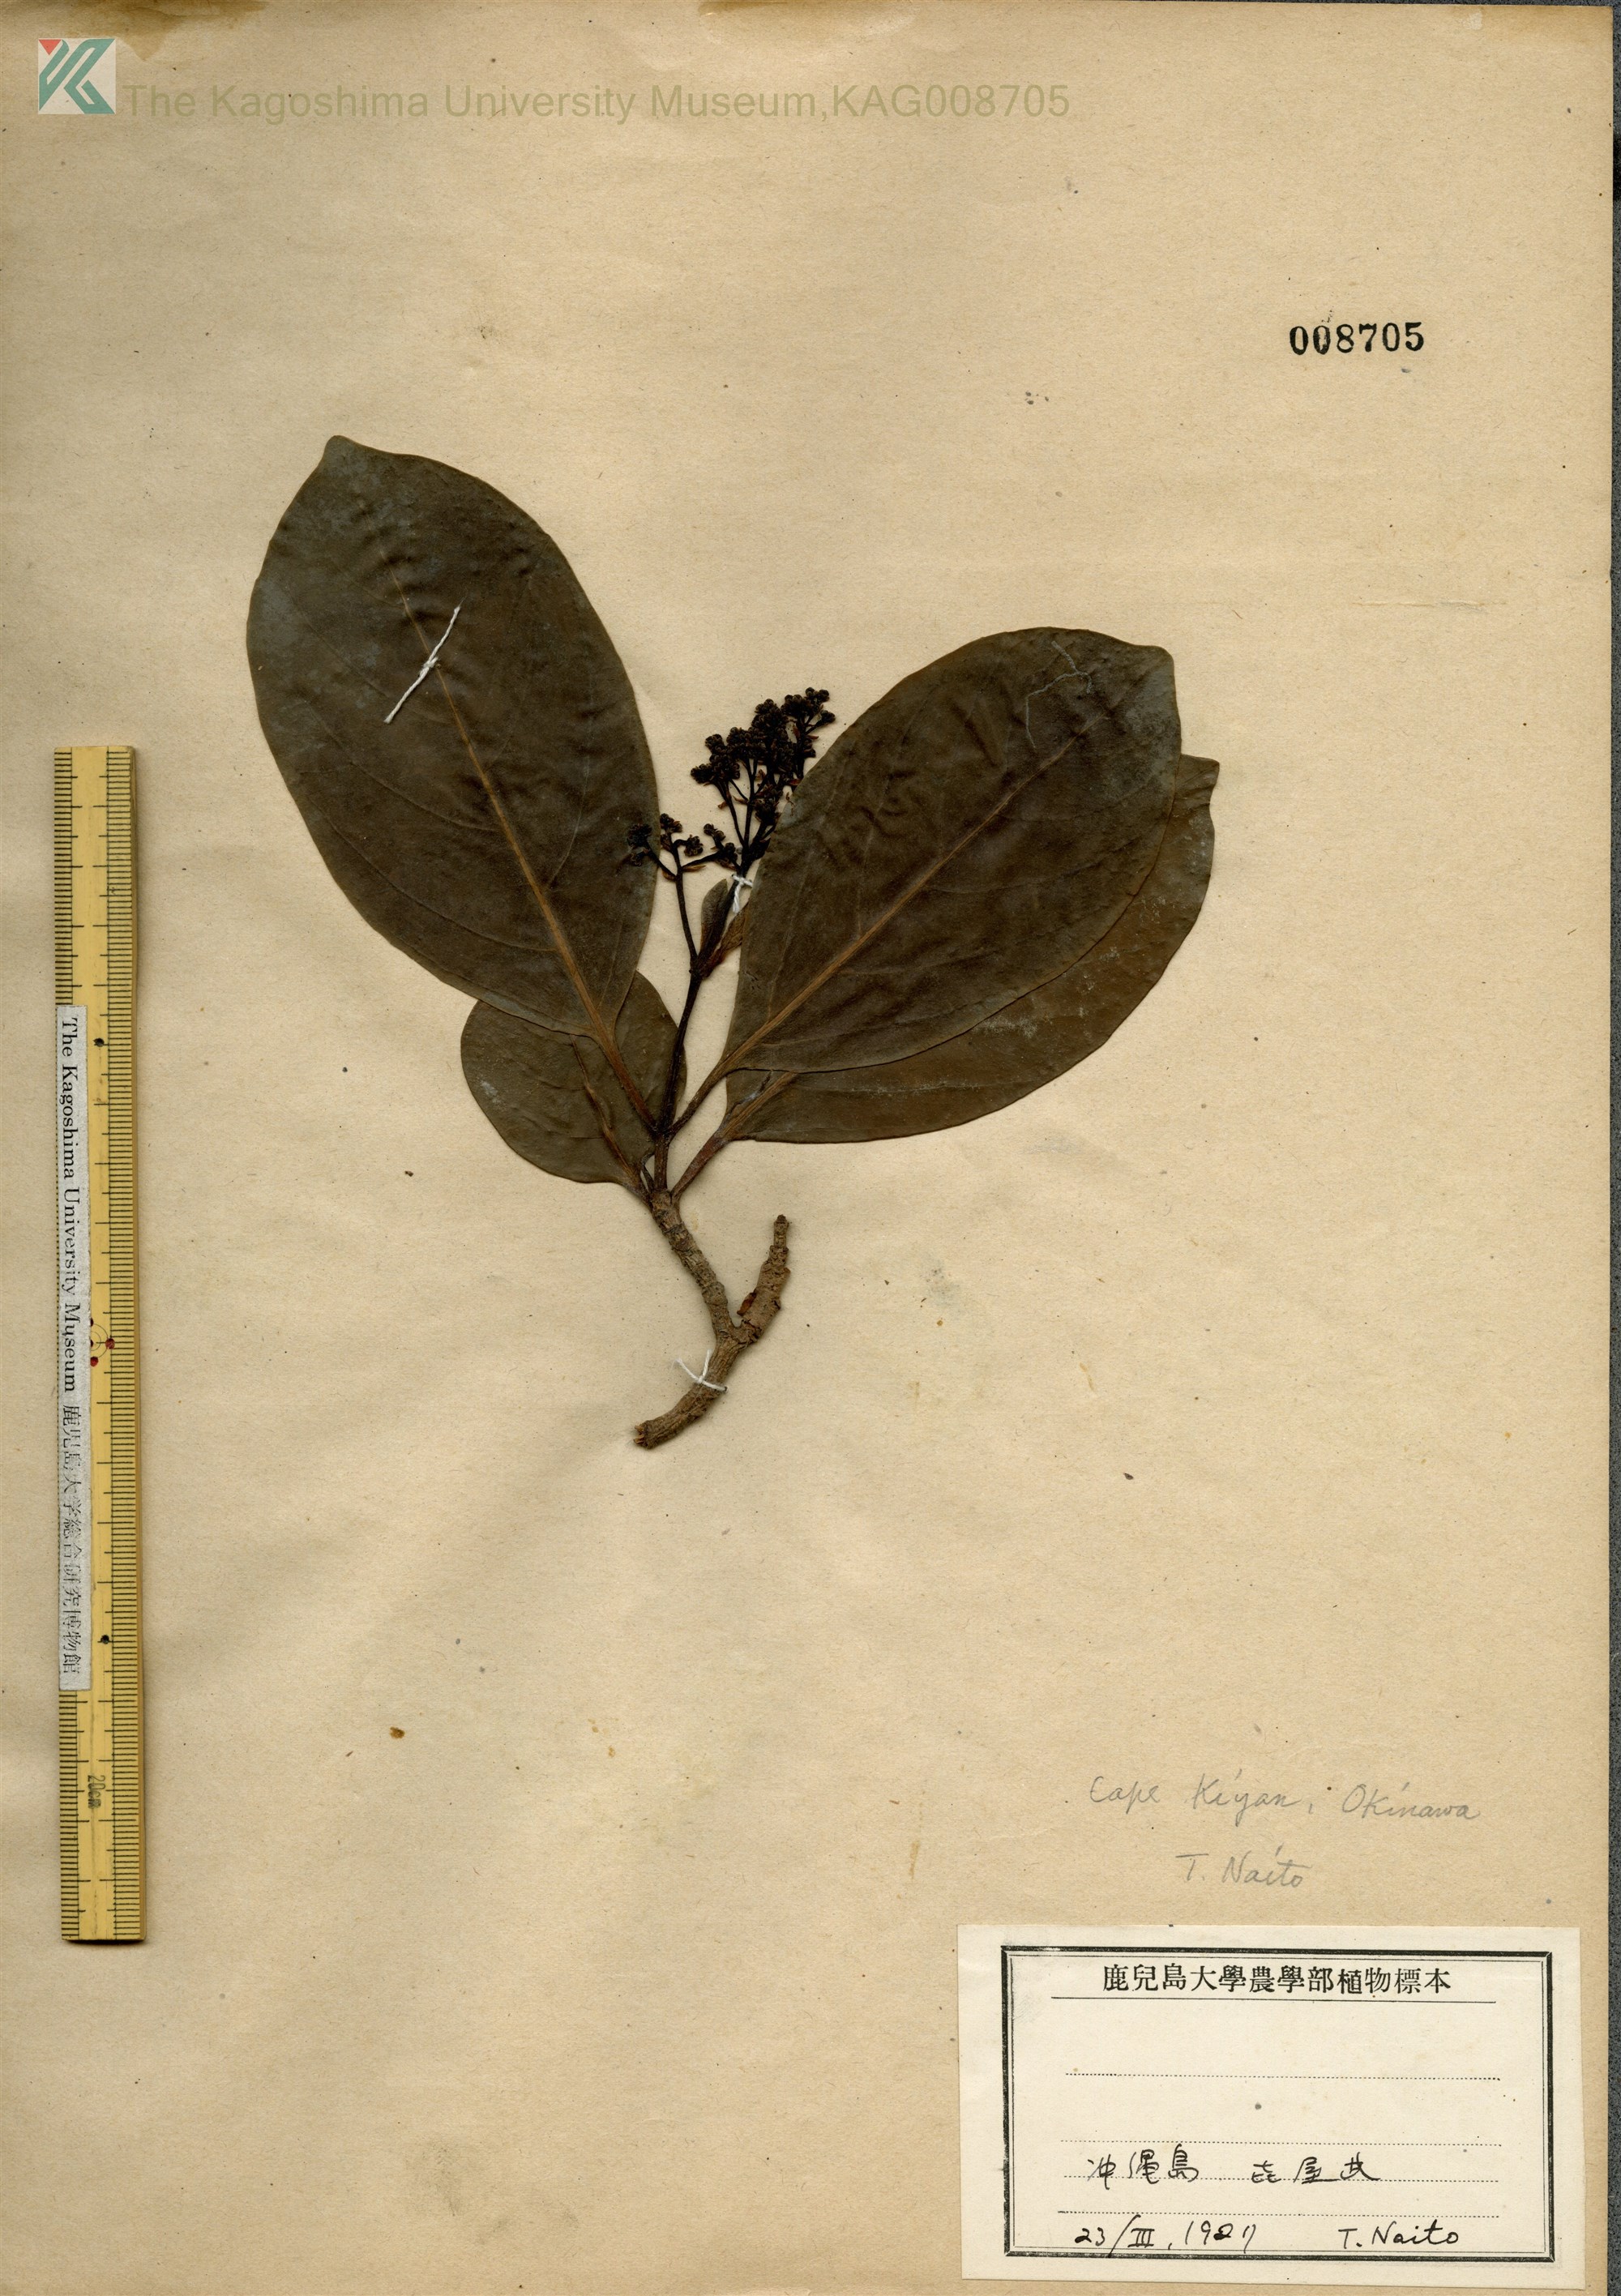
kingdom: Plantae
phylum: Tracheophyta
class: Magnoliopsida
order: Dipsacales
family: Viburnaceae
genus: Viburnum
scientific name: Viburnum odoratissimum
